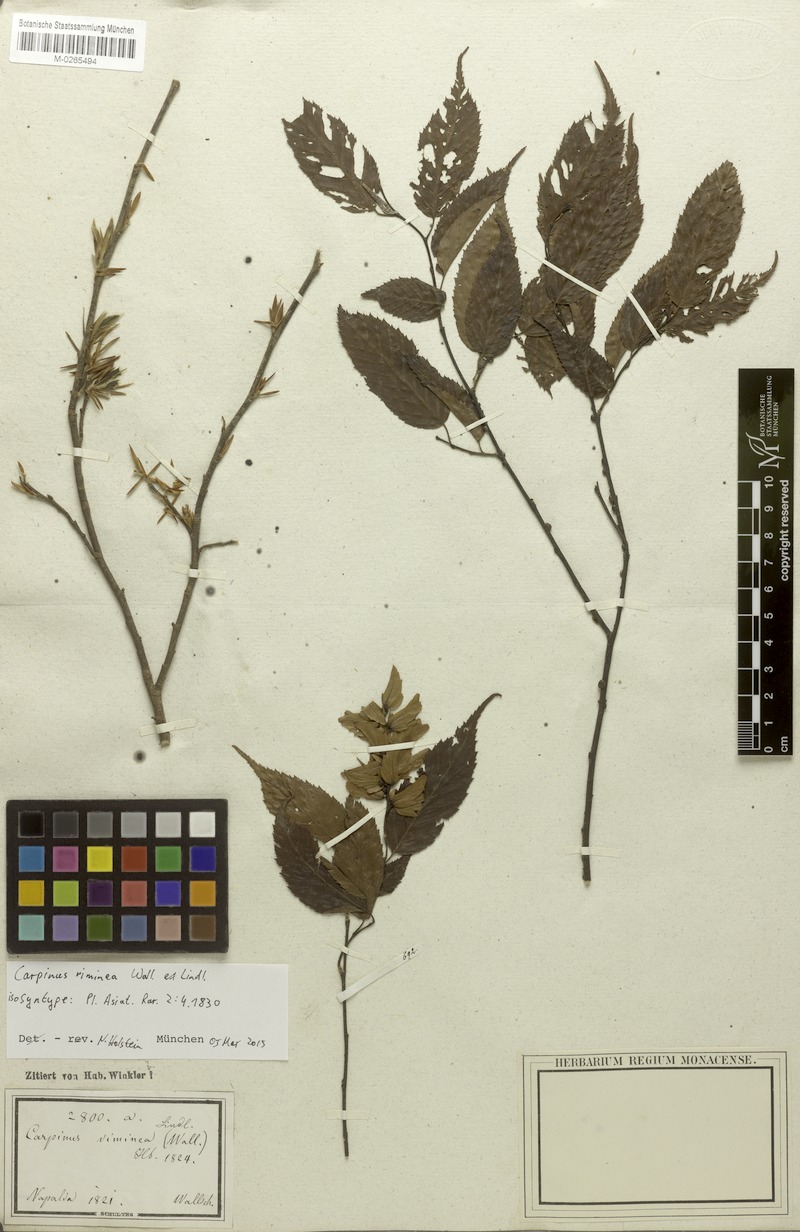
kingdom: Plantae
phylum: Tracheophyta
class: Magnoliopsida
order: Fagales
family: Betulaceae
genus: Carpinus
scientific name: Carpinus viminea
